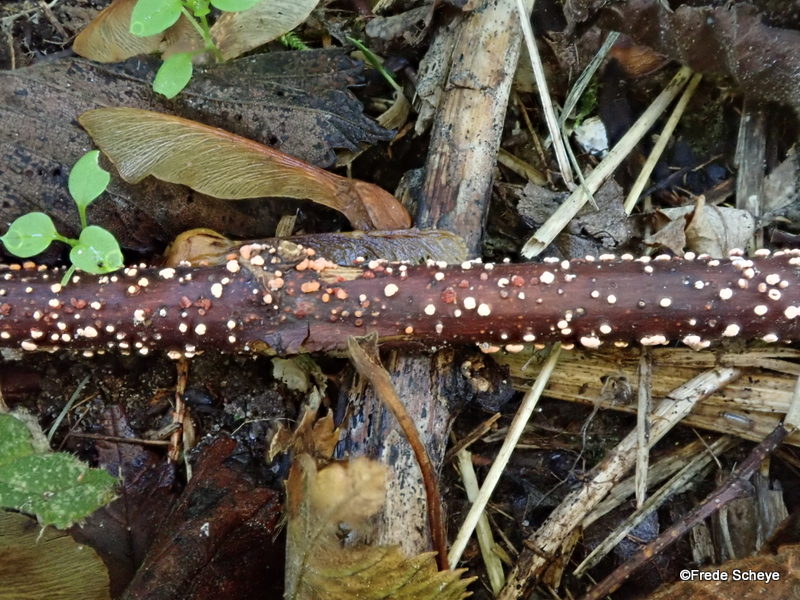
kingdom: Fungi
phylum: Ascomycota
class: Sordariomycetes
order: Hypocreales
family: Nectriaceae
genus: Nectria
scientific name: Nectria cinnabarina
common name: almindelig cinnobersvamp
